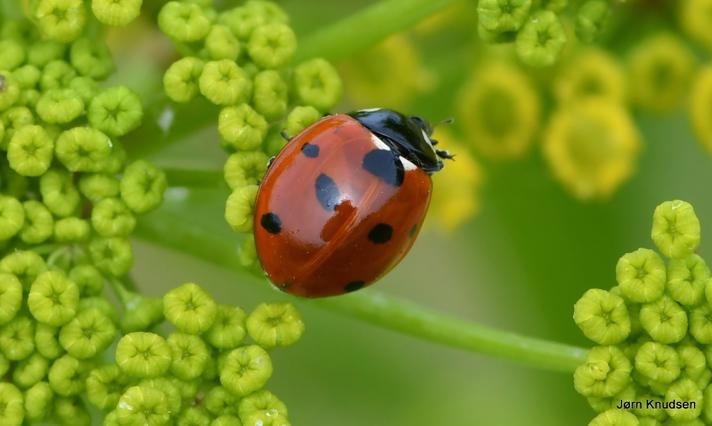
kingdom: Animalia
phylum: Arthropoda
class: Insecta
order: Coleoptera
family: Coccinellidae
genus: Coccinella
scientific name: Coccinella septempunctata
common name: Syvplettet mariehøne
